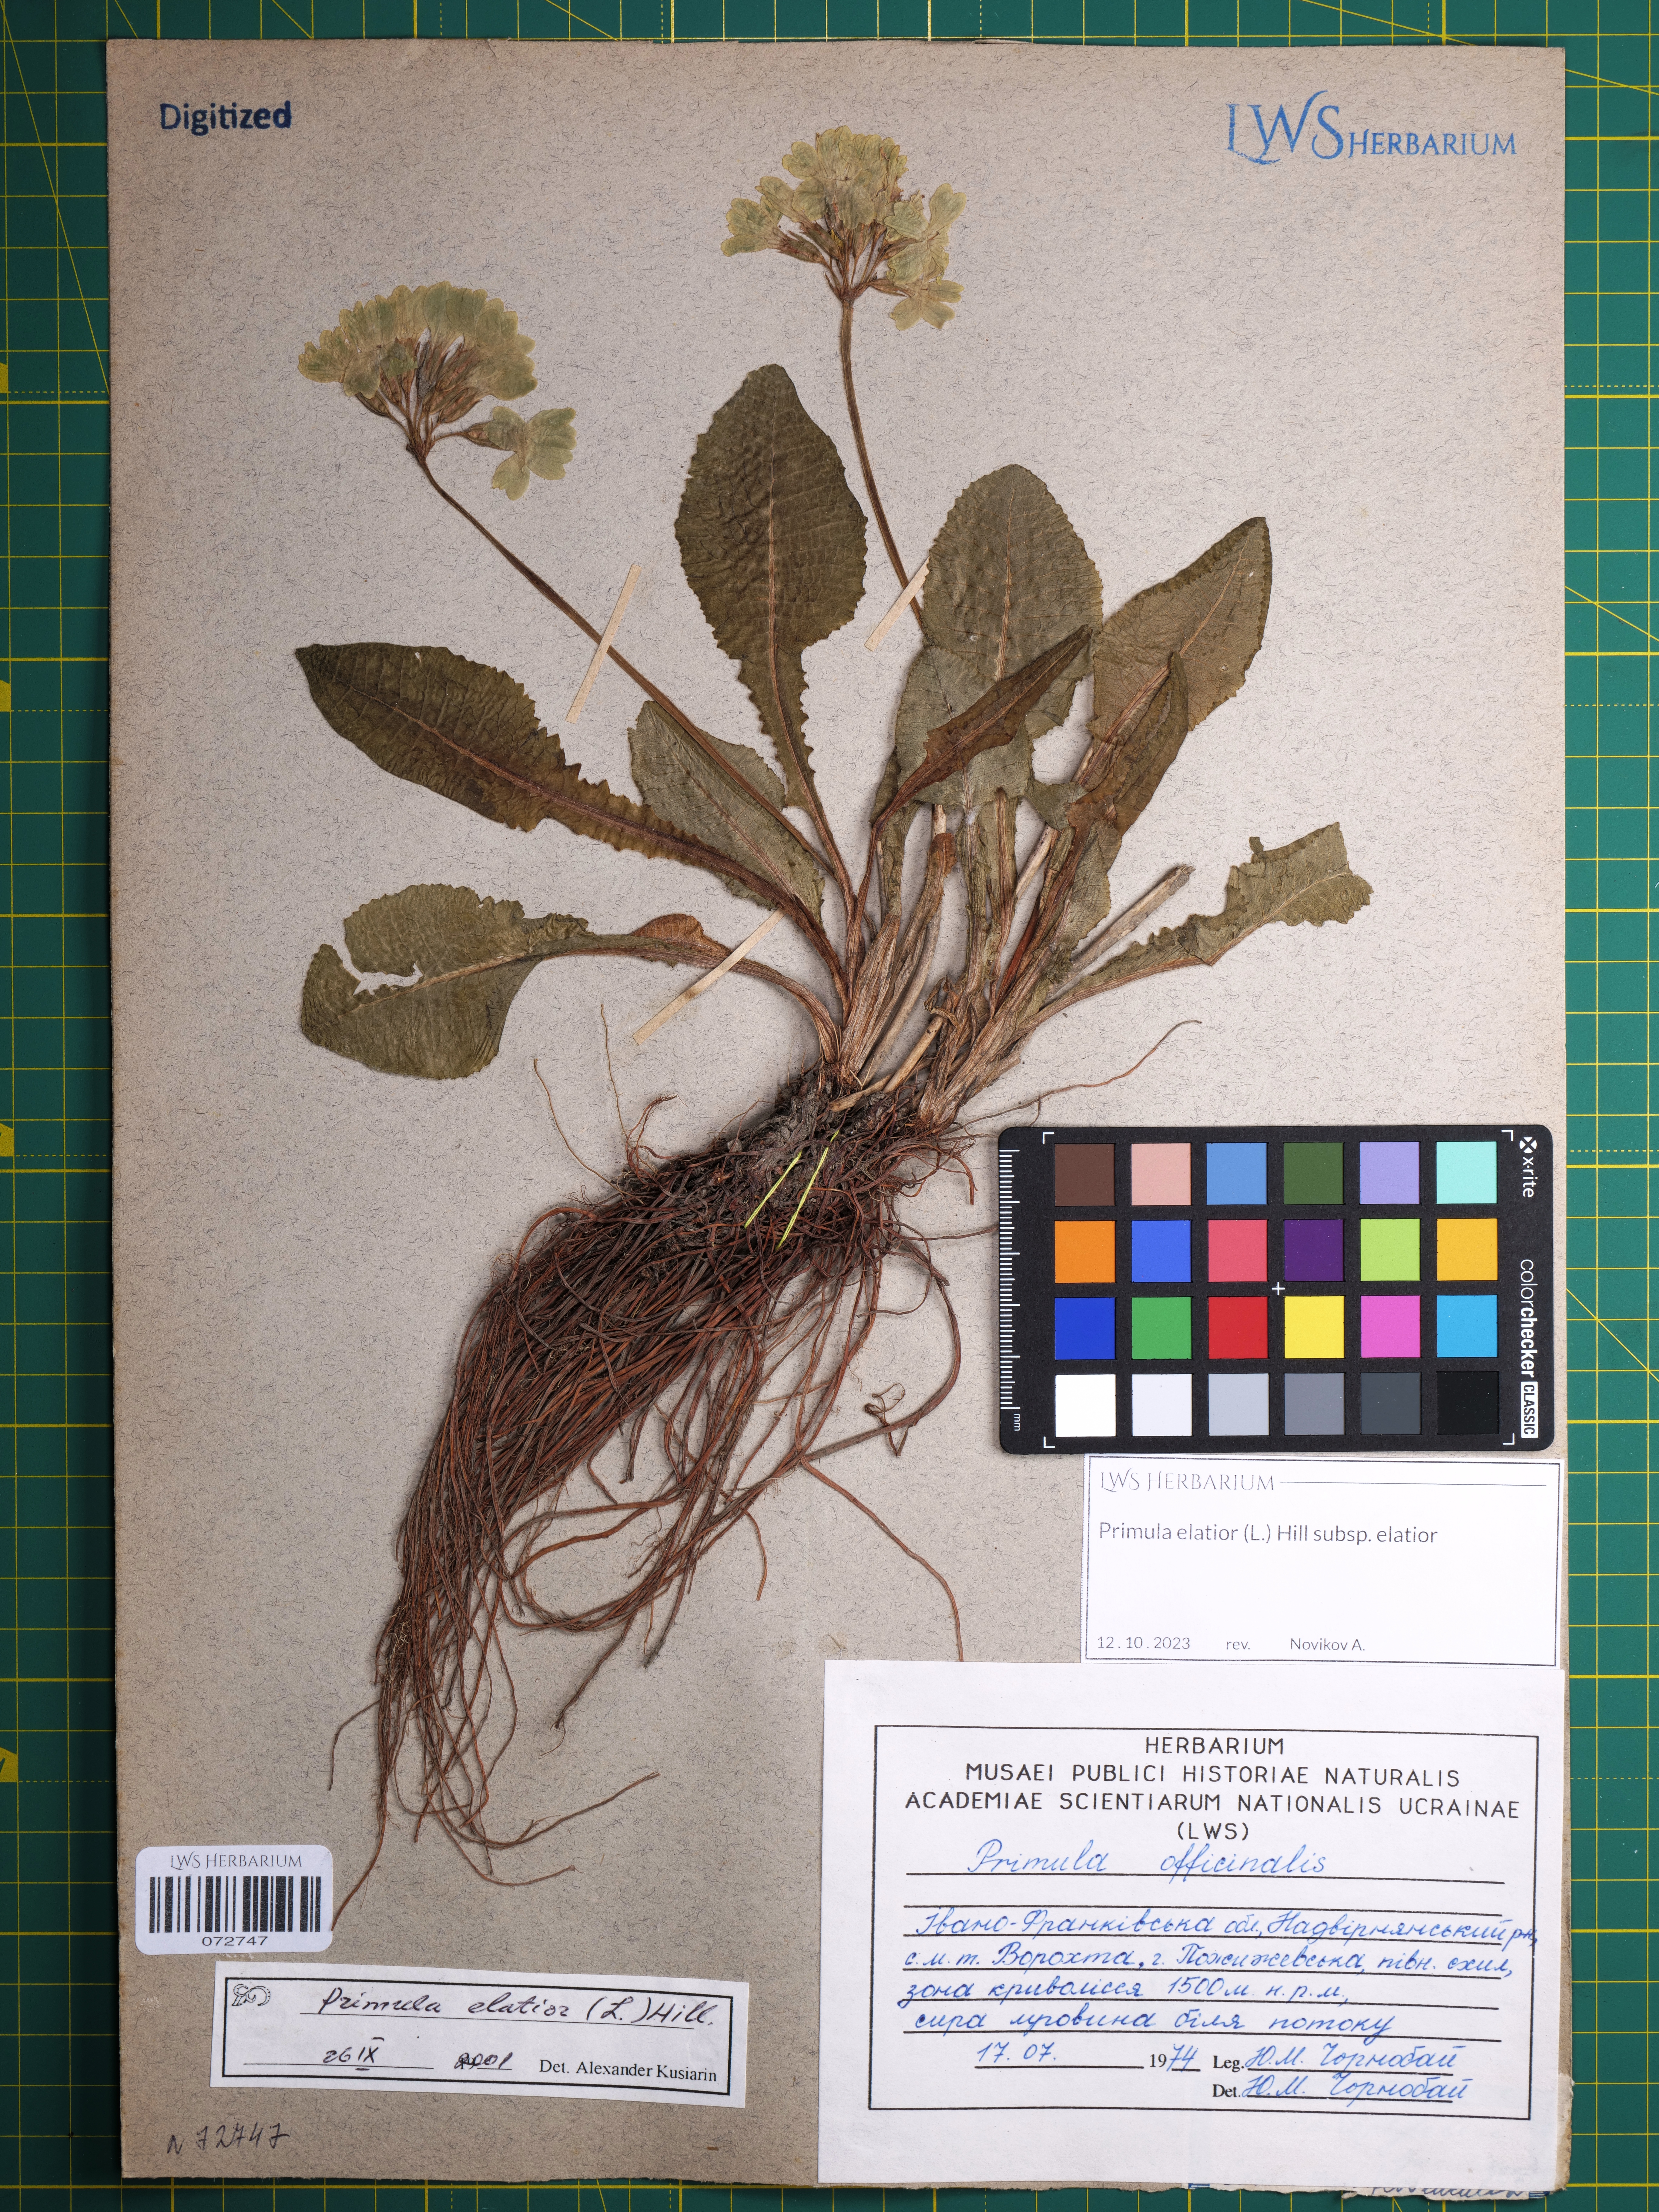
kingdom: Plantae
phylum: Tracheophyta
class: Magnoliopsida
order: Ericales
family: Primulaceae
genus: Primula
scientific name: Primula elatior
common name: Oxlip
